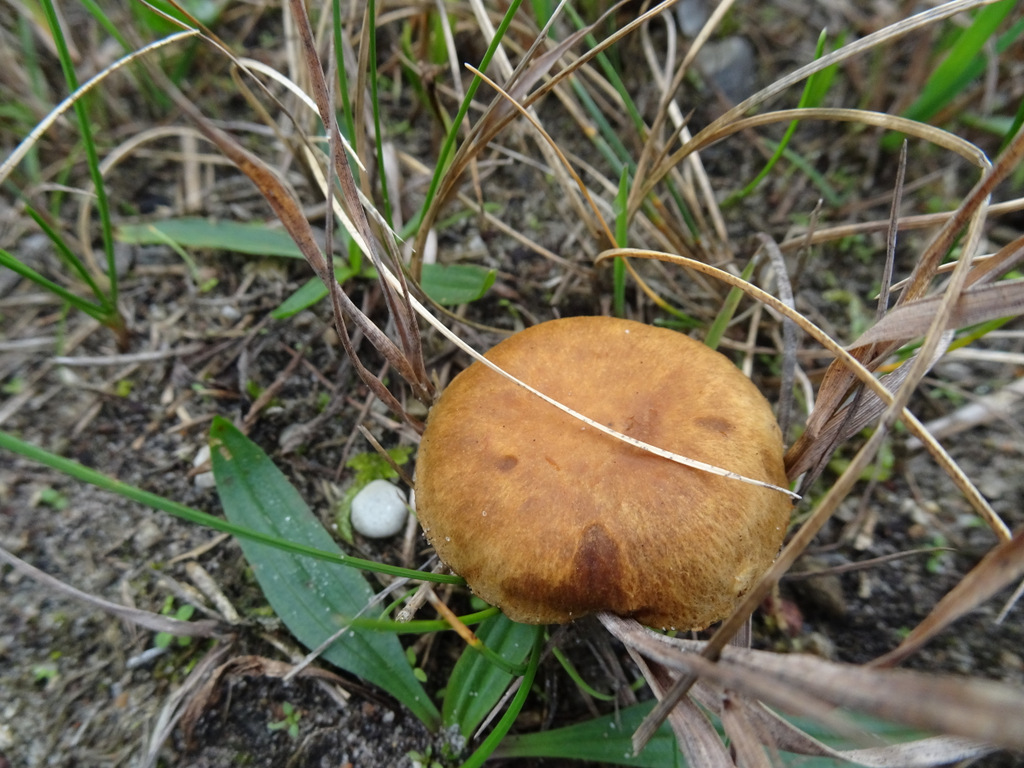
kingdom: Fungi
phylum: Basidiomycota
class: Agaricomycetes
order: Agaricales
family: Inocybaceae
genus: Mallocybe
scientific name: Mallocybe
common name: Trævlhat
